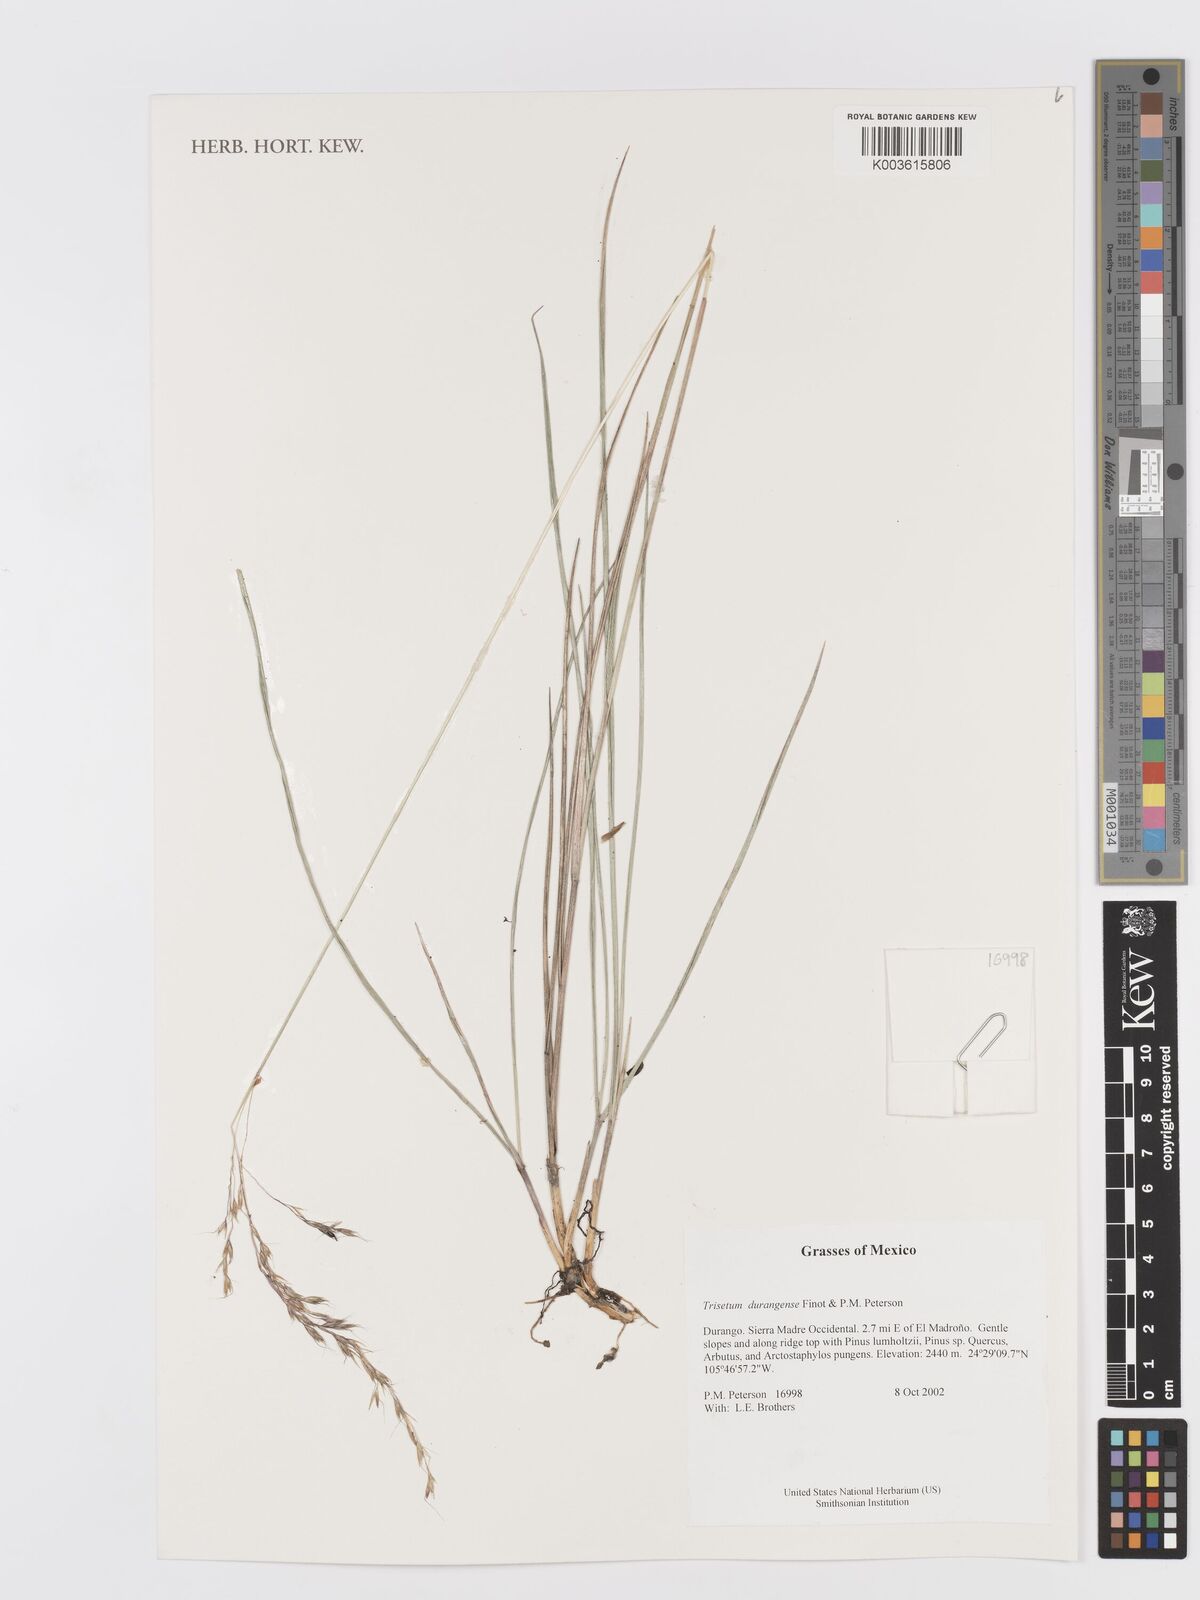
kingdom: Plantae
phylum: Tracheophyta
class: Liliopsida
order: Poales
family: Poaceae
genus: Peyritschia
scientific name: Peyritschia durangensis
